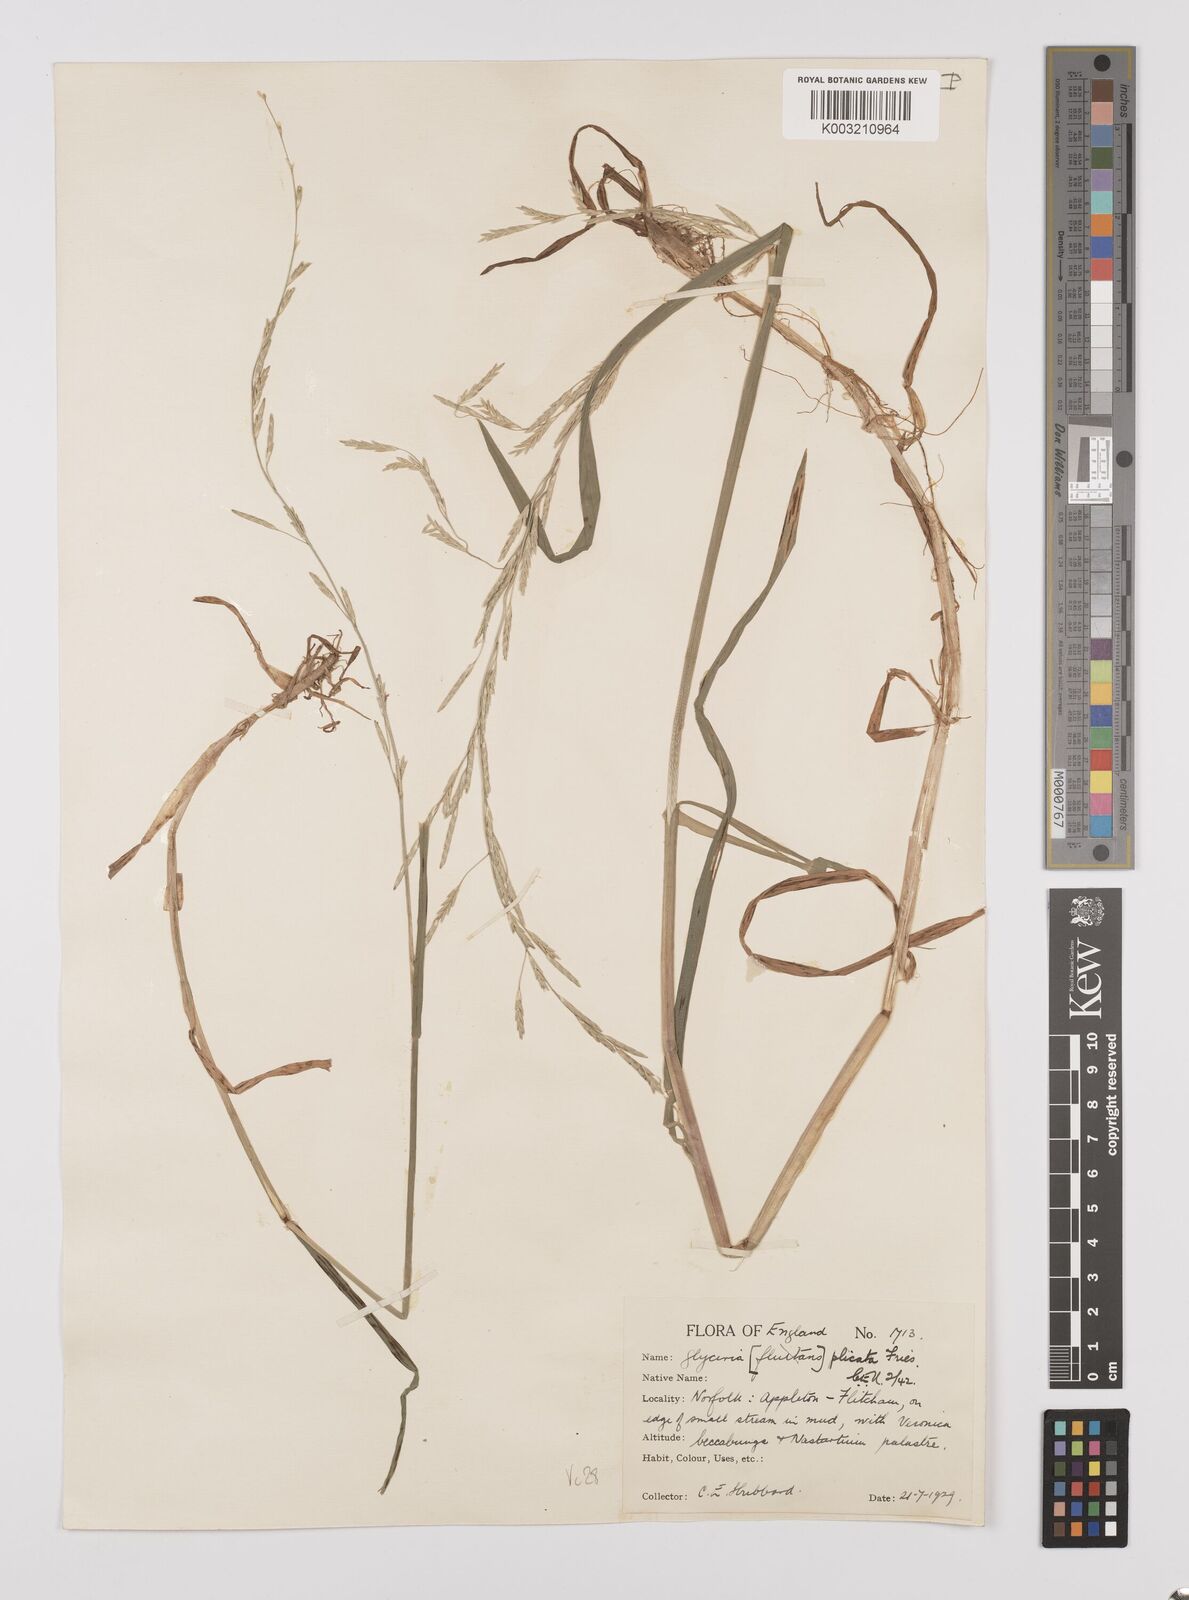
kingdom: Plantae
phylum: Tracheophyta
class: Liliopsida
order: Poales
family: Poaceae
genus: Glyceria
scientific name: Glyceria notata
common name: Plicate sweet-grass
